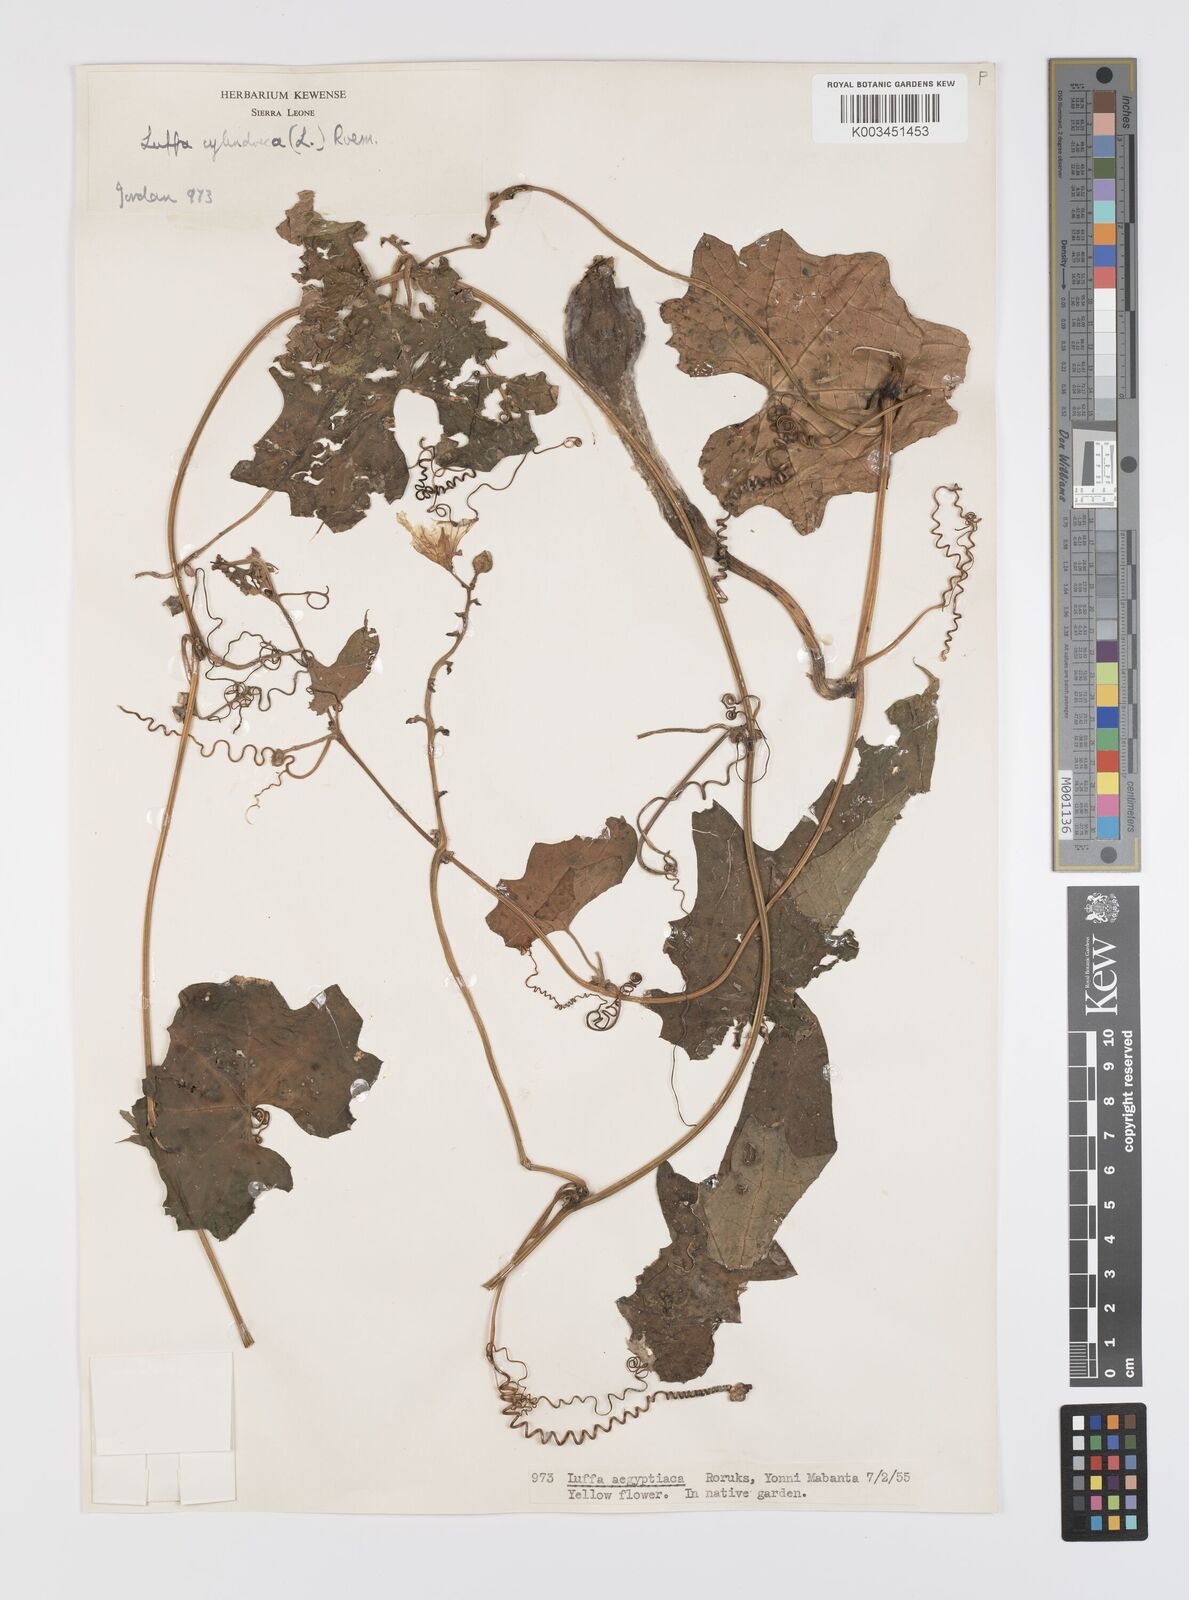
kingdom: Plantae
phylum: Tracheophyta
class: Magnoliopsida
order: Cucurbitales
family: Cucurbitaceae
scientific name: Cucurbitaceae
